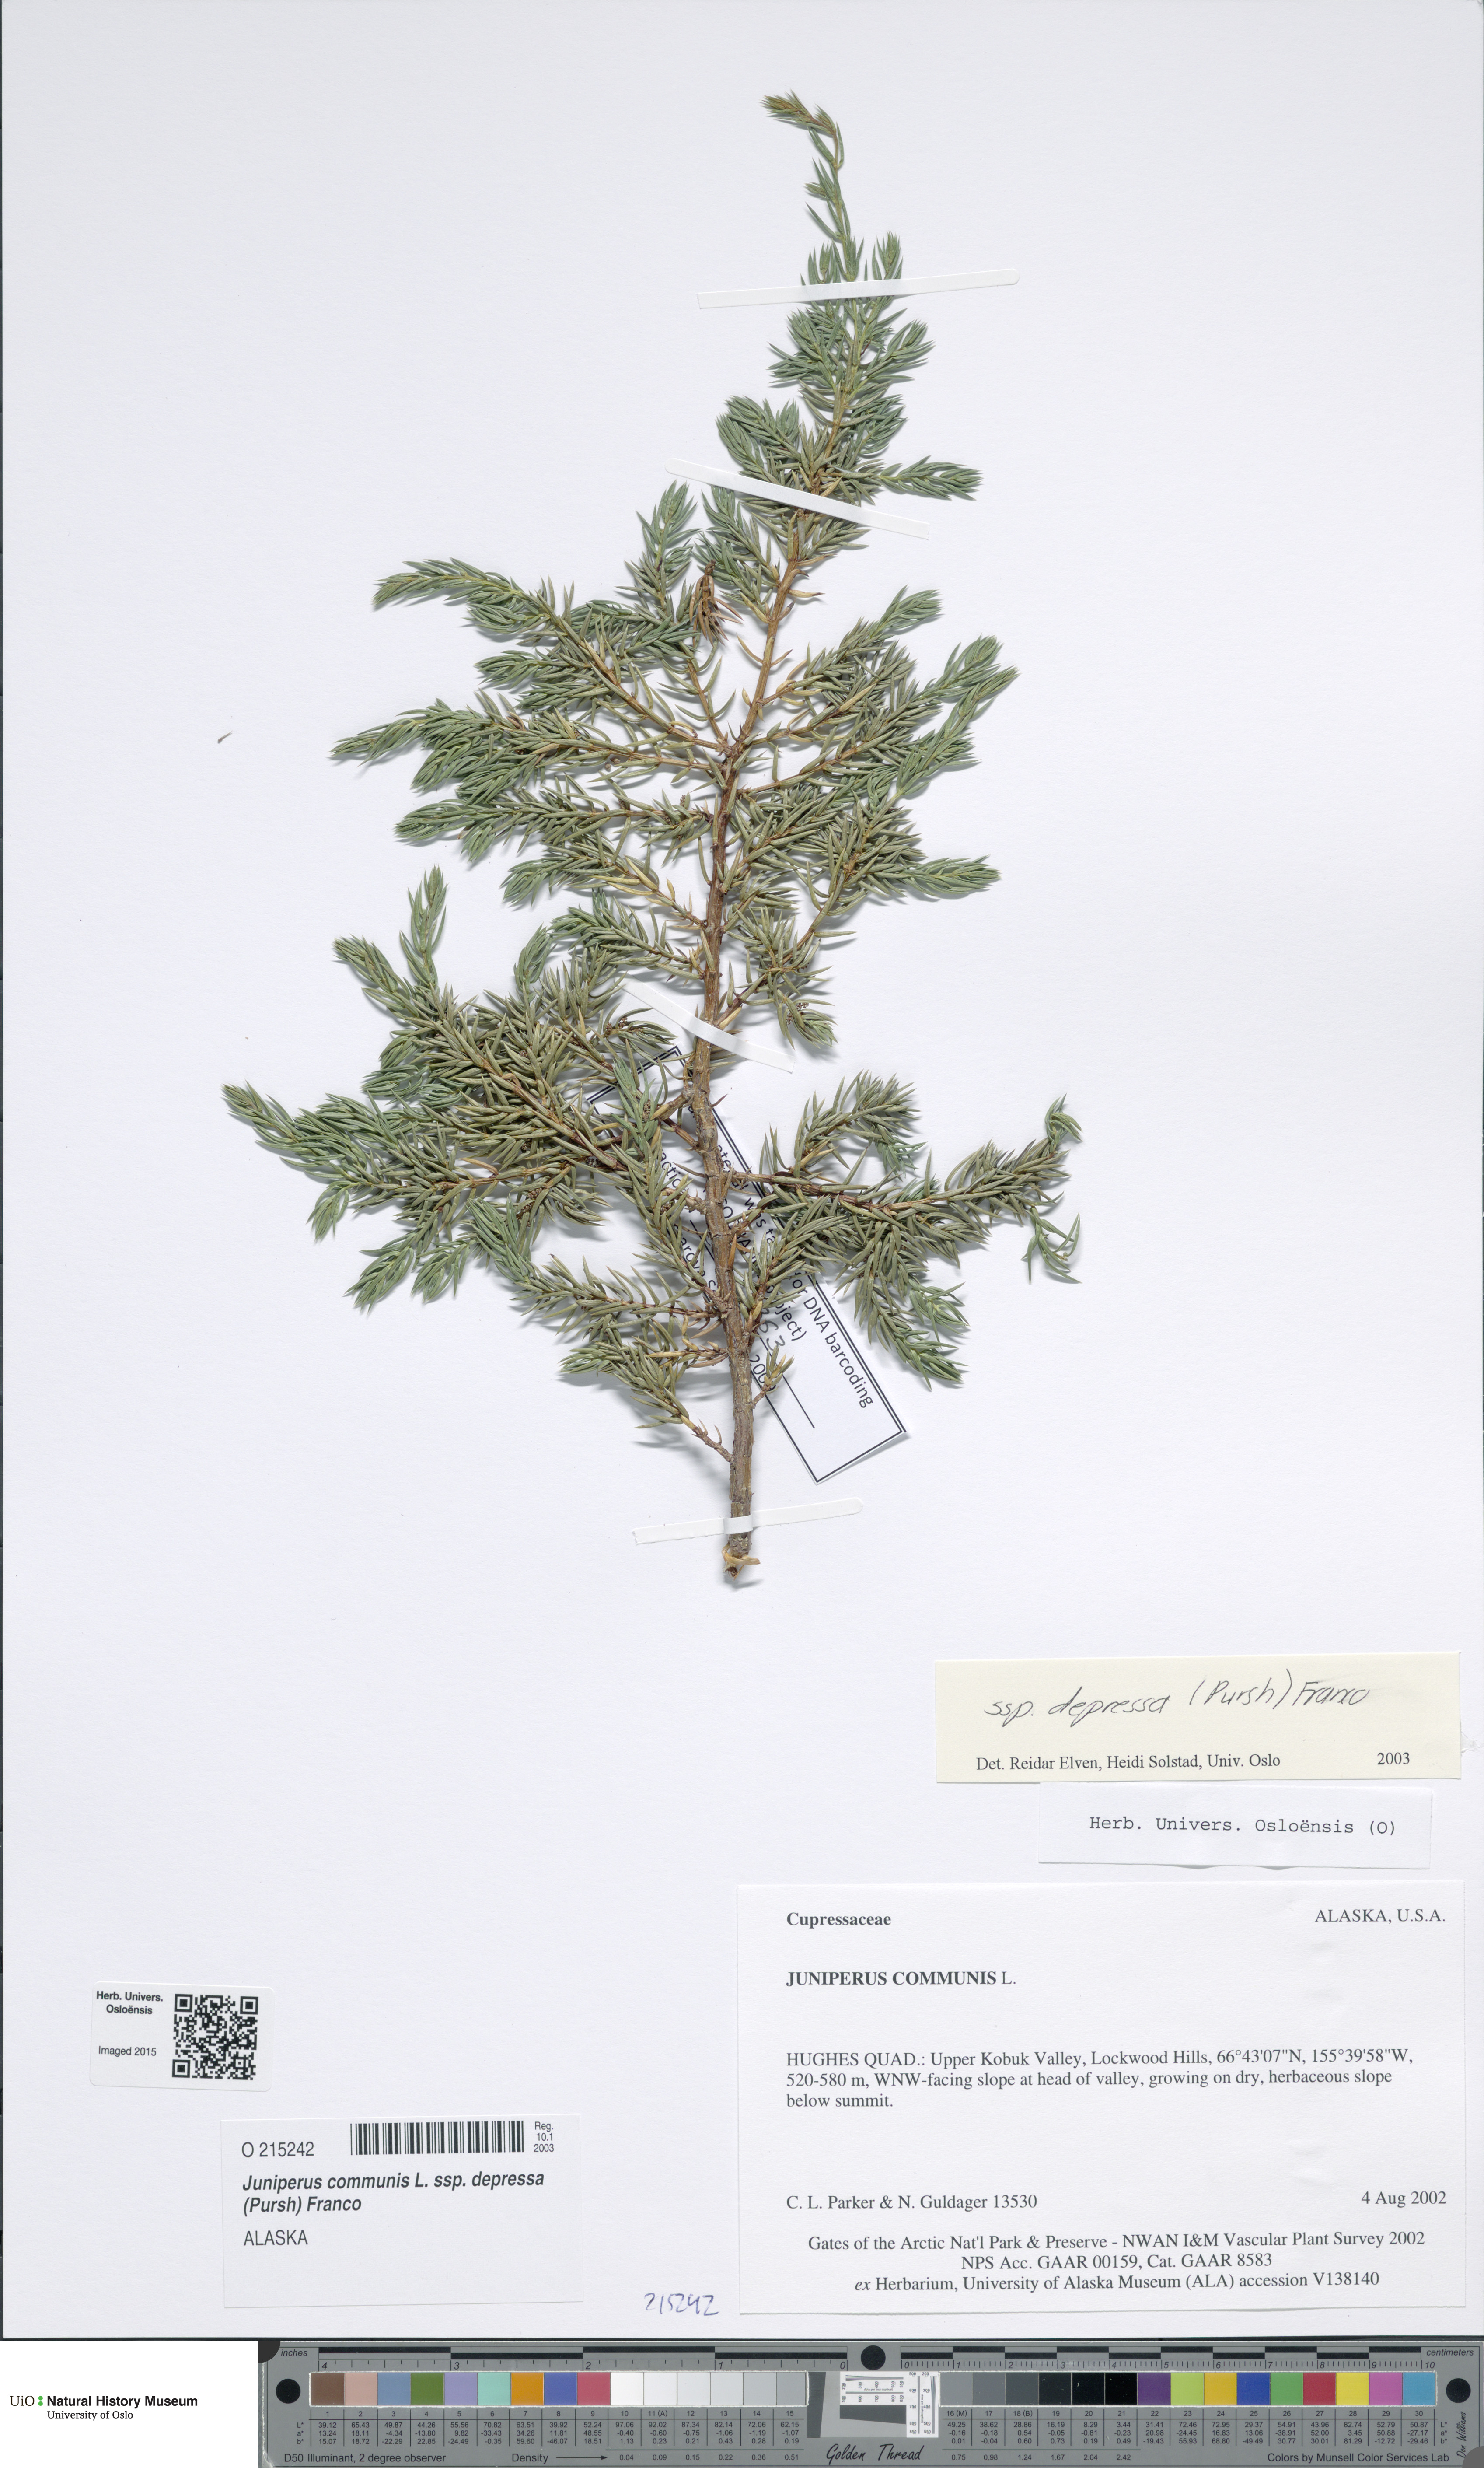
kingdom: Plantae
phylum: Tracheophyta
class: Pinopsida
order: Pinales
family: Cupressaceae
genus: Juniperus
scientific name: Juniperus communis
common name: Common juniper
